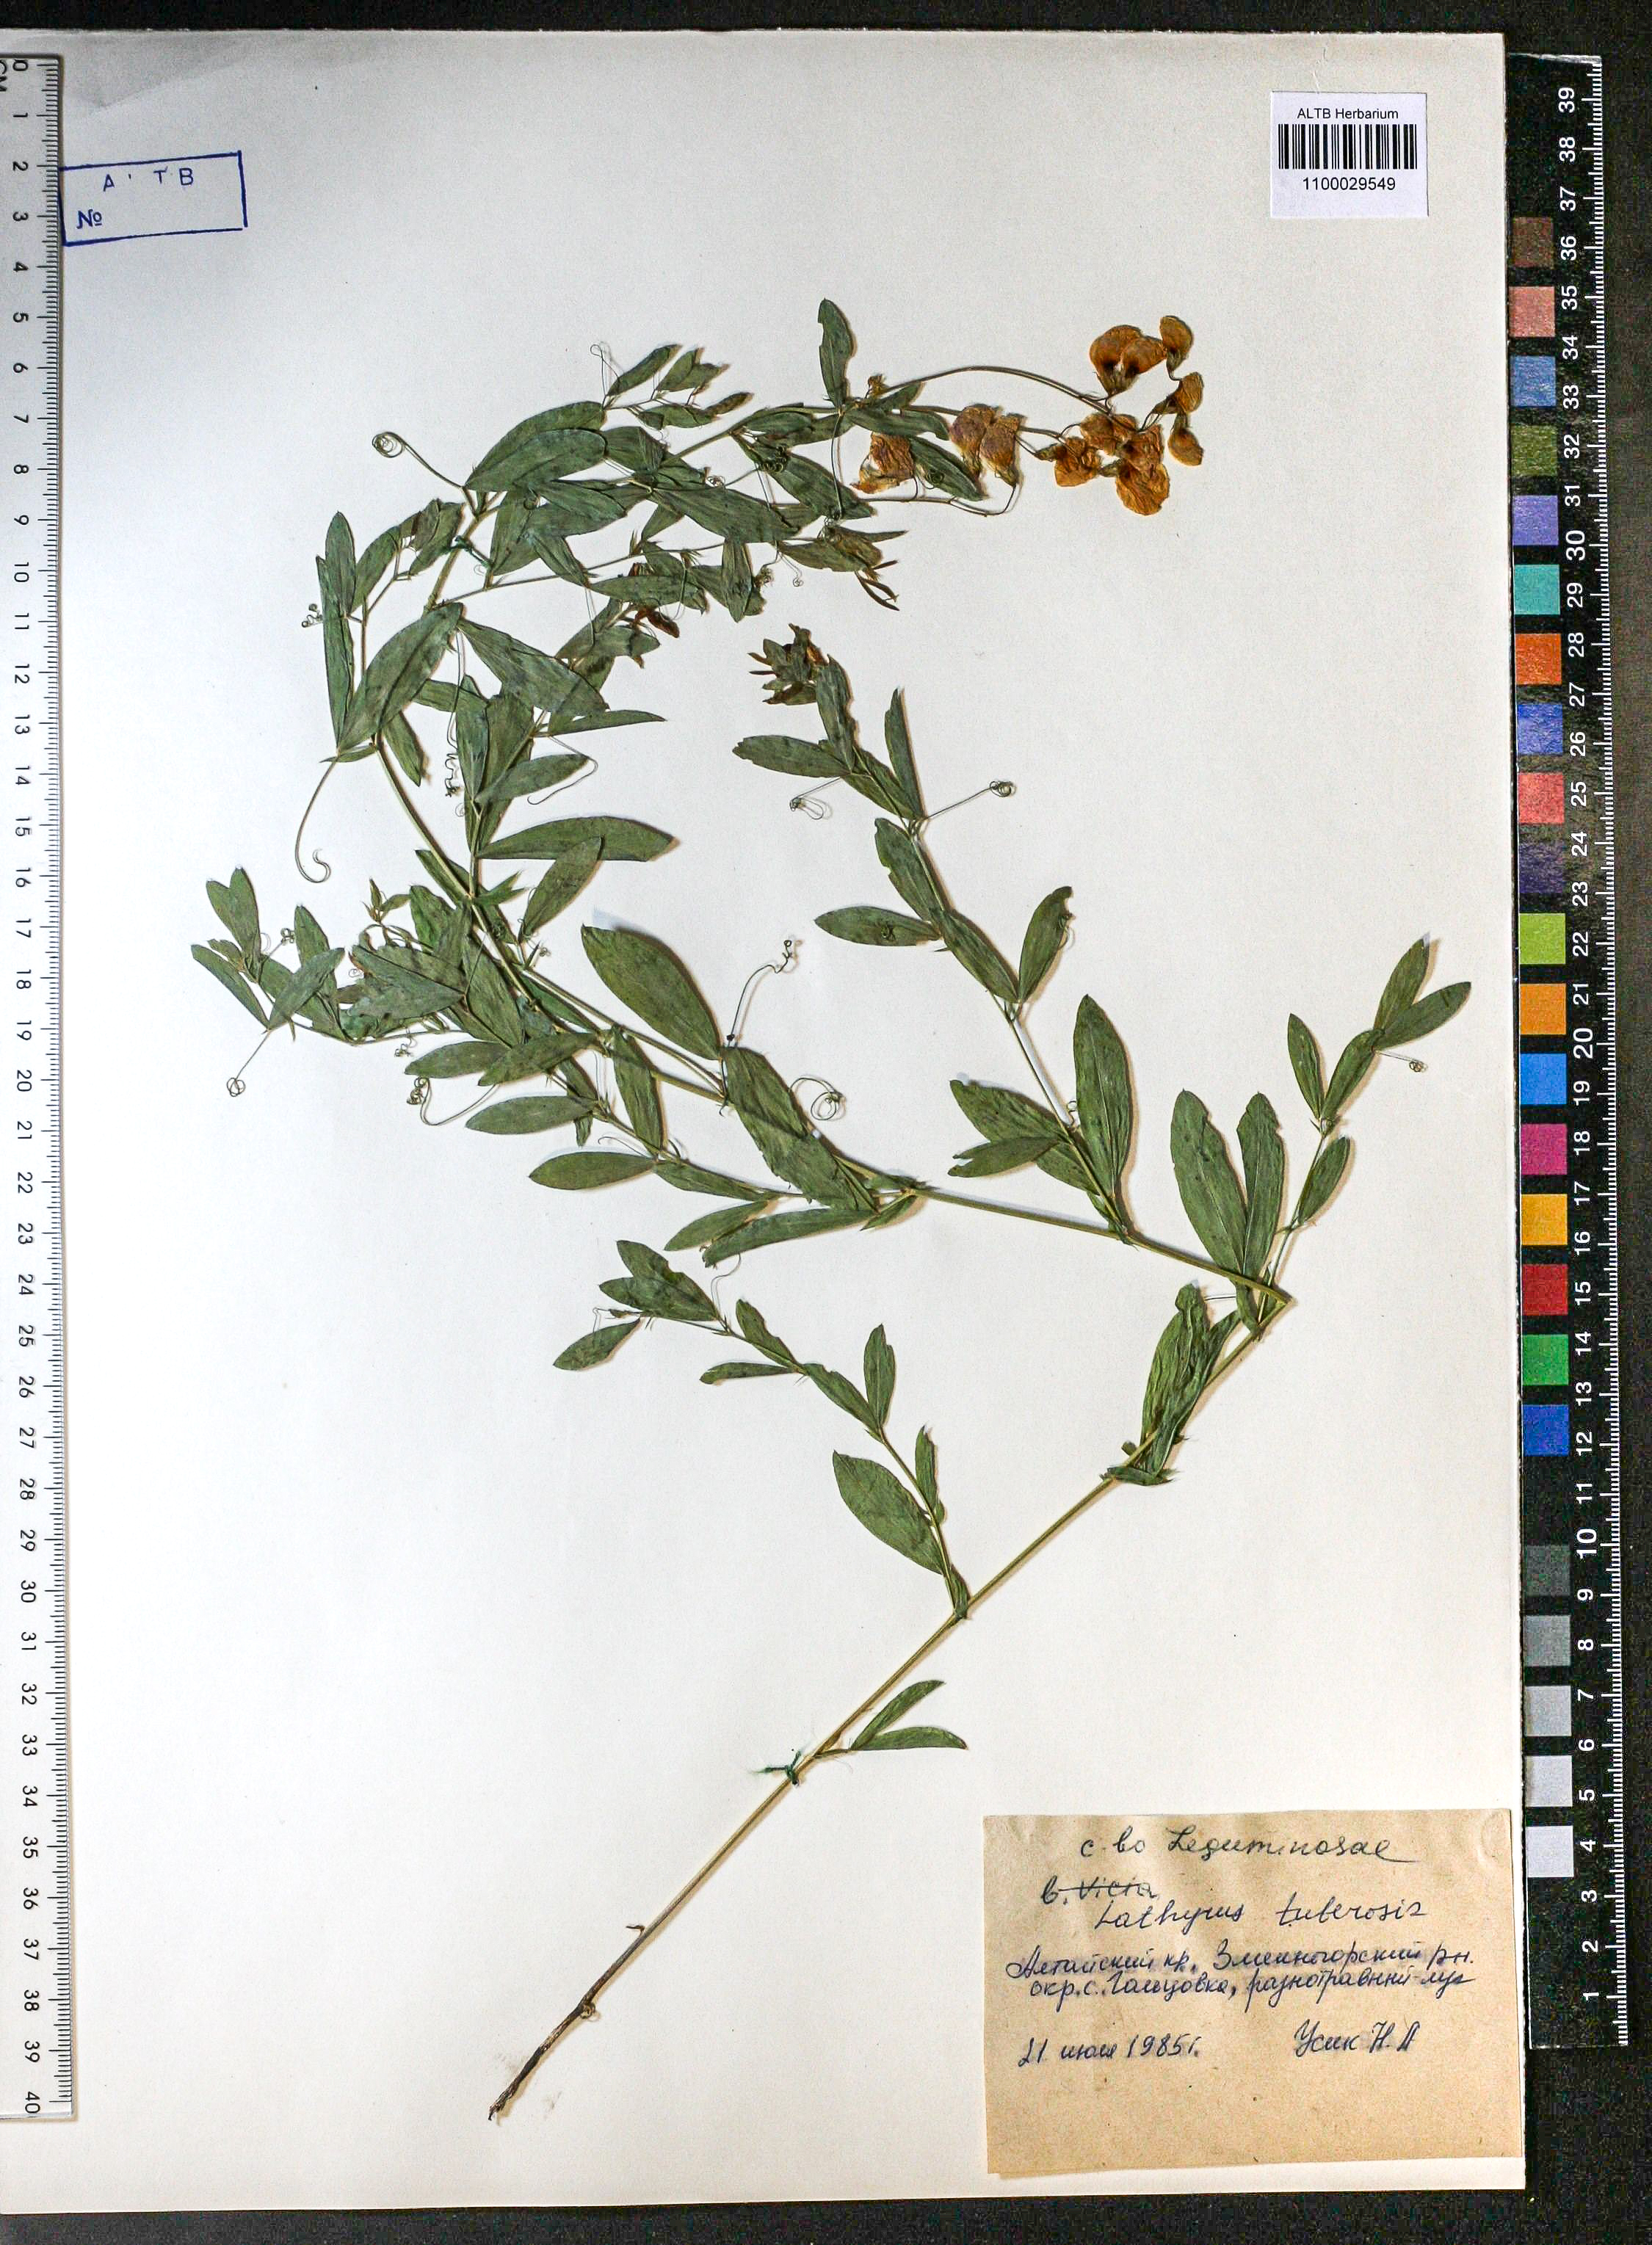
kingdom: Plantae
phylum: Tracheophyta
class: Magnoliopsida
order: Fabales
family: Fabaceae
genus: Lathyrus
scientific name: Lathyrus tuberosus
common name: Tuberous pea
